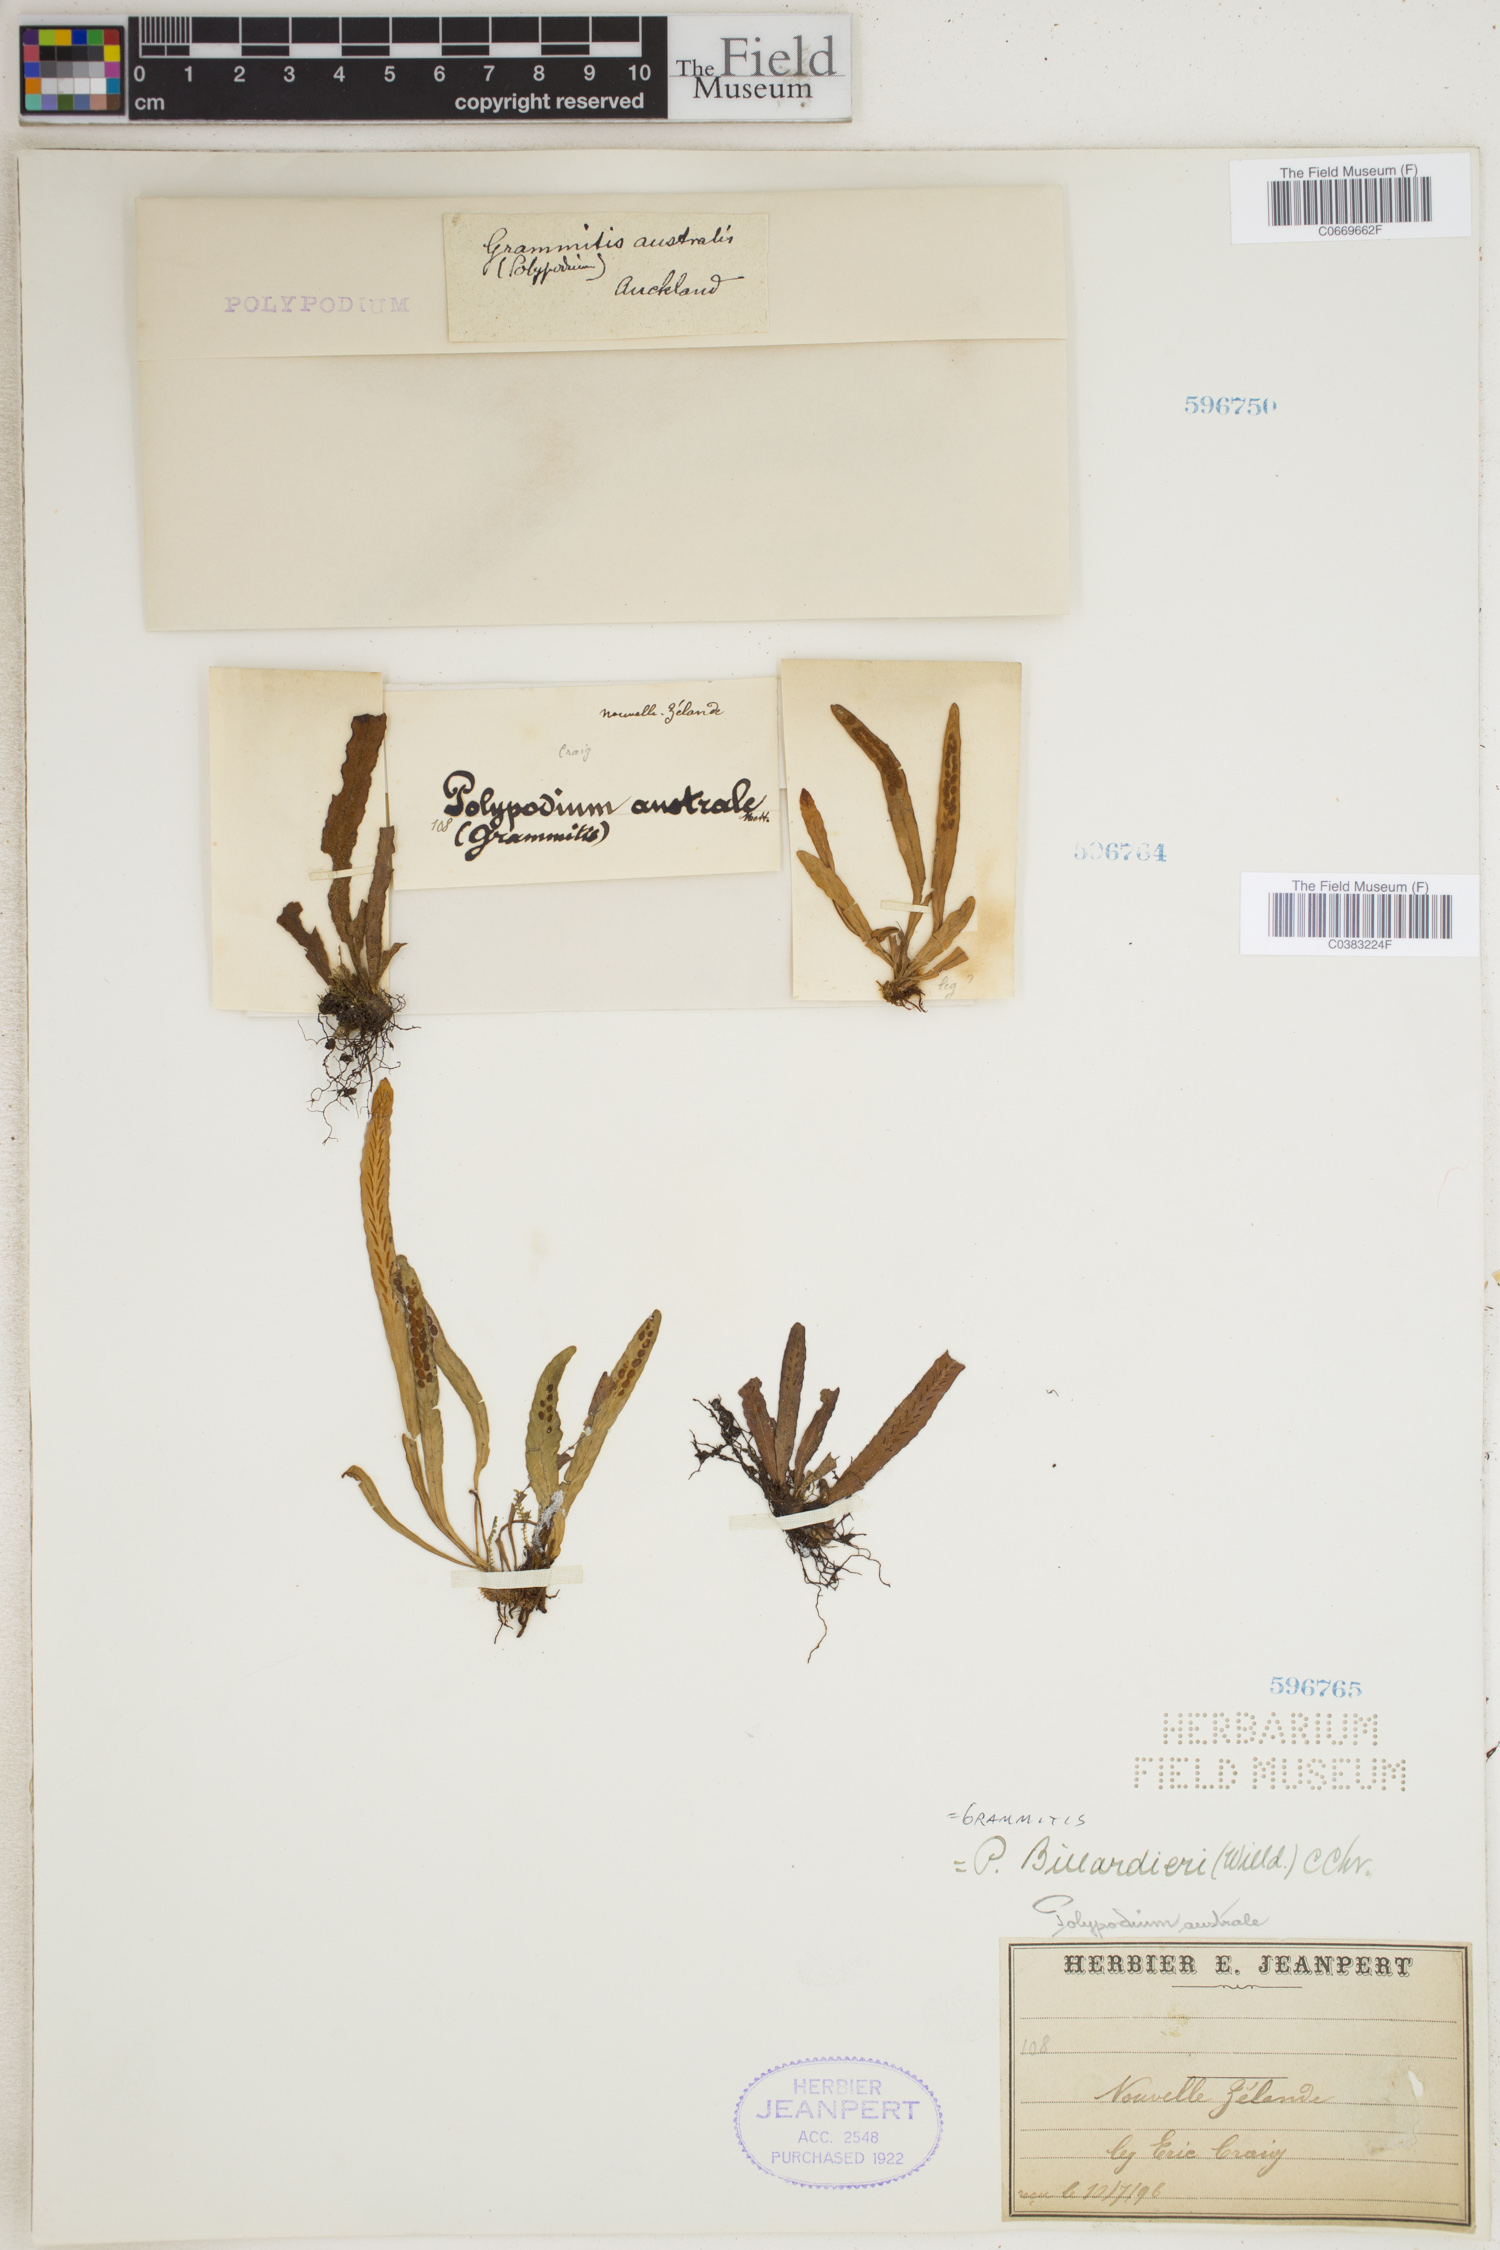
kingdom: Plantae
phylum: Tracheophyta
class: Polypodiopsida
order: Polypodiales
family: Polypodiaceae
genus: Grammitis
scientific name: Grammitis
